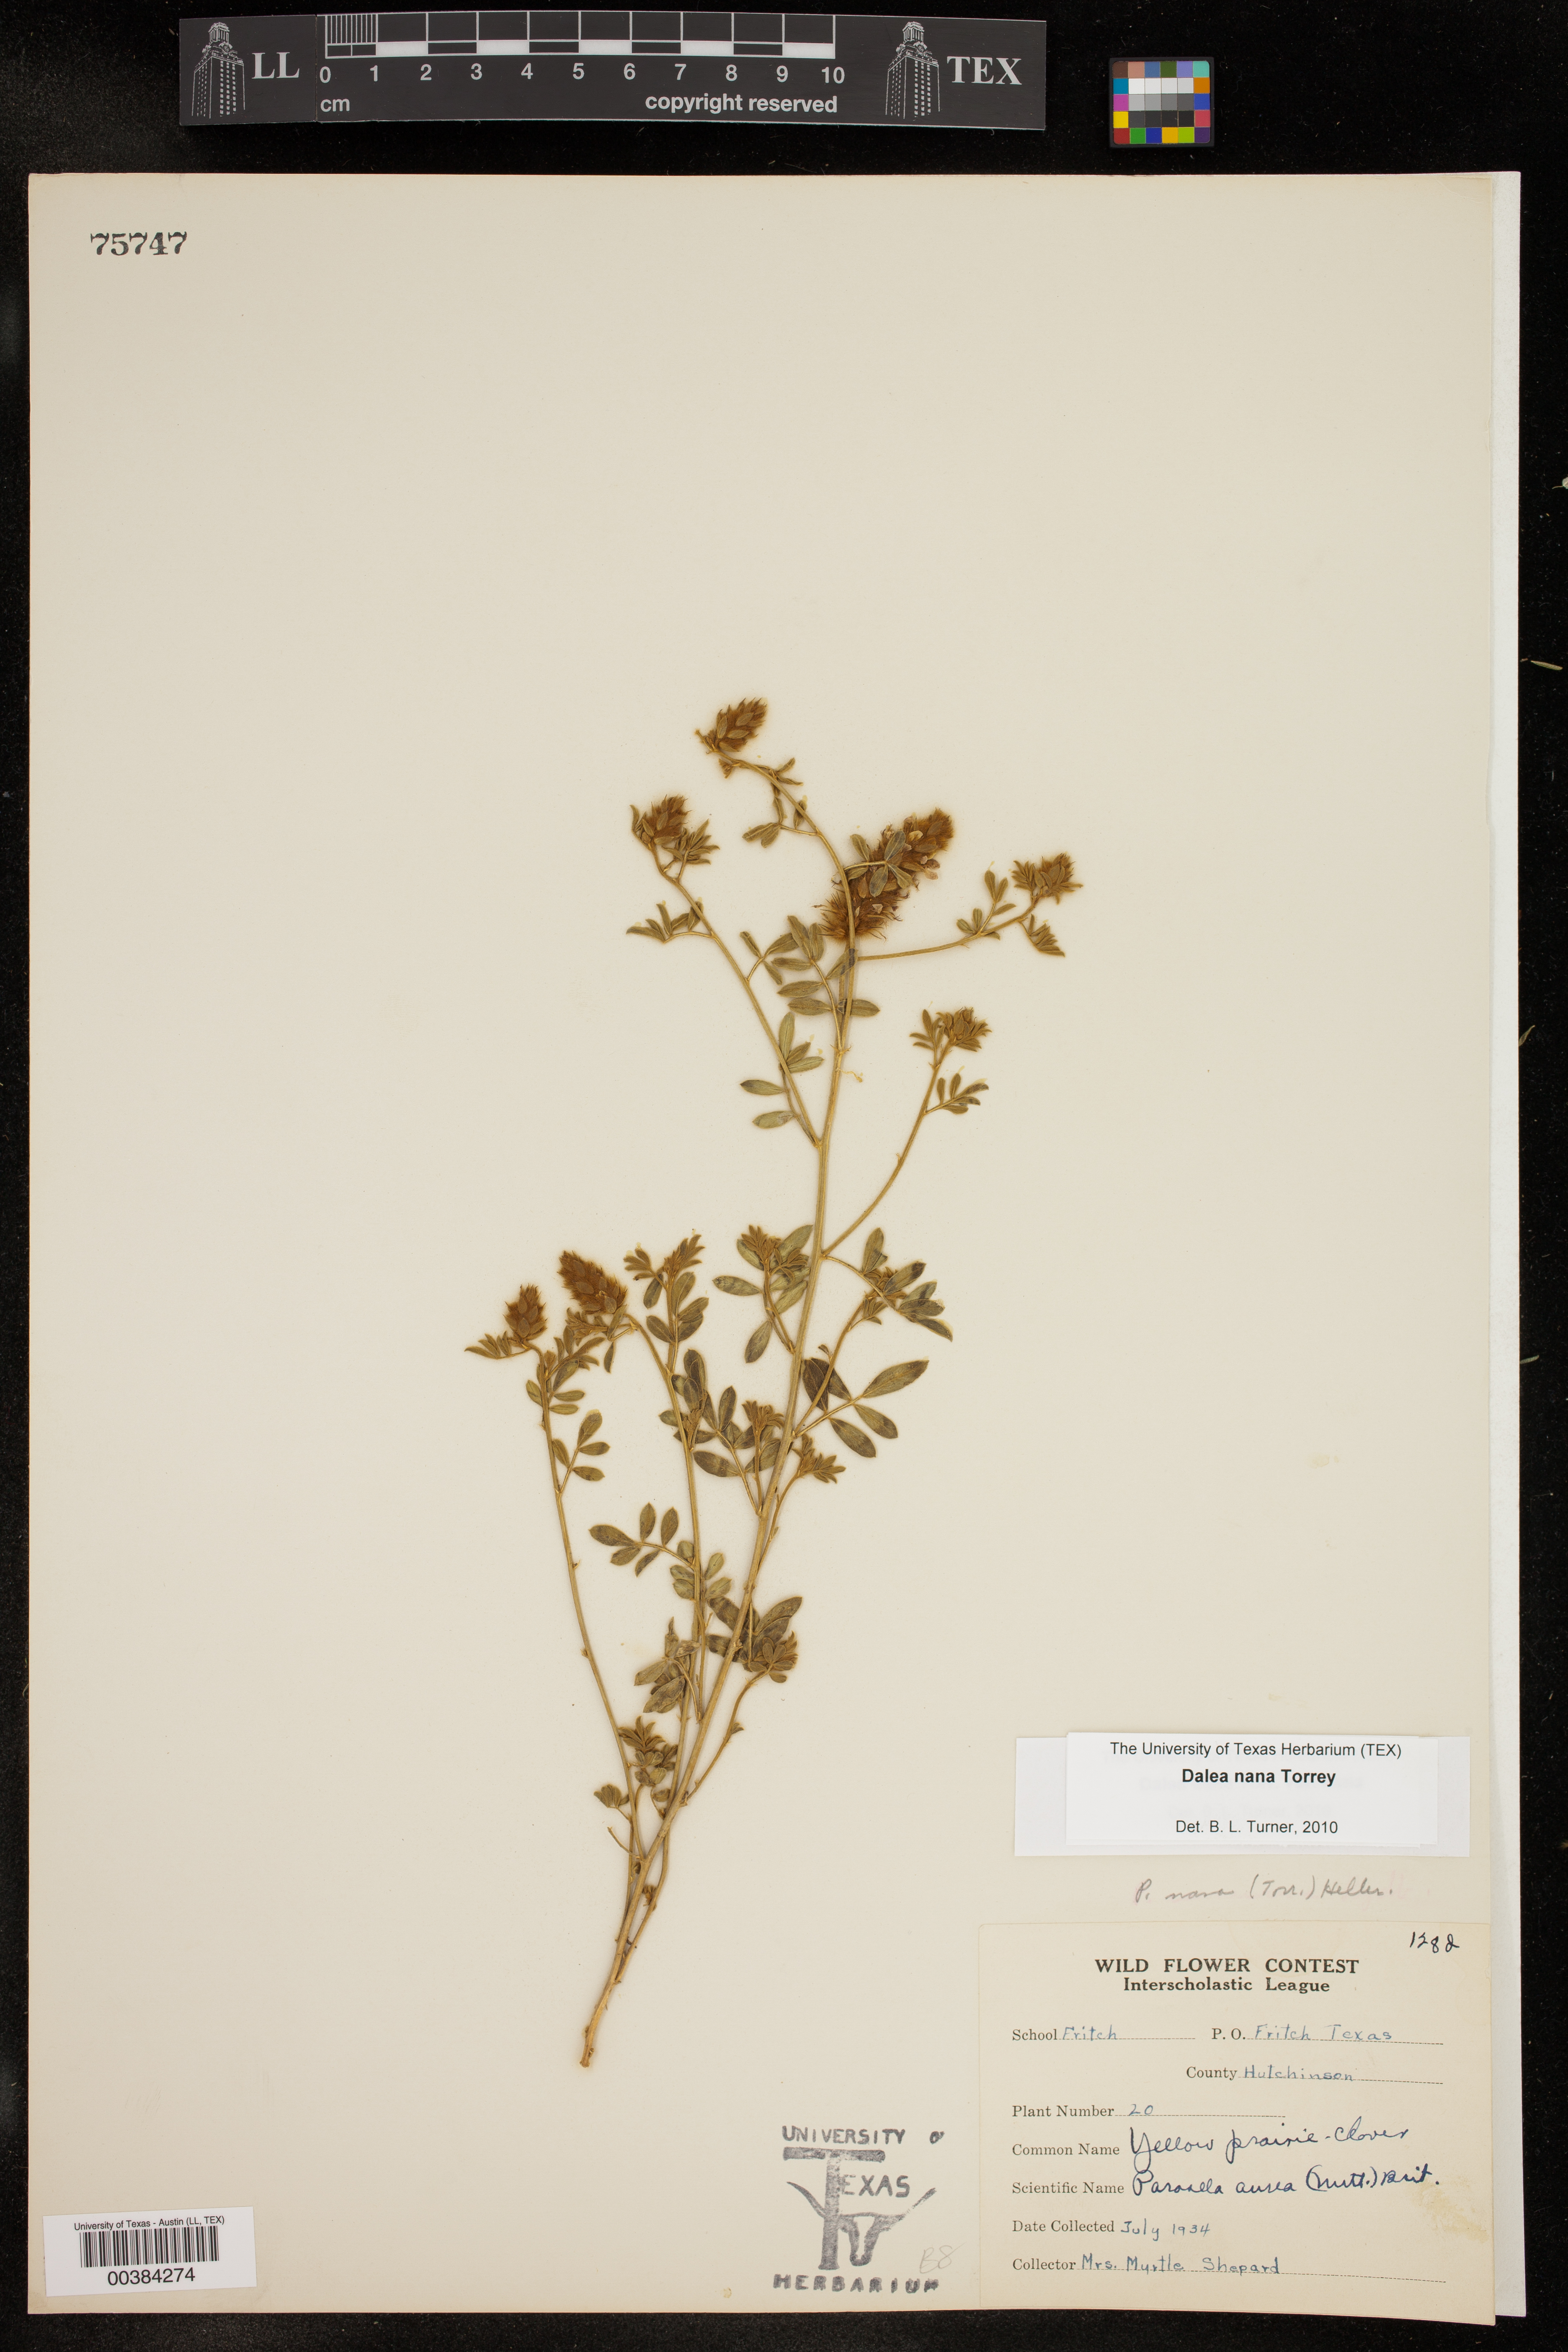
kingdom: Plantae
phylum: Tracheophyta
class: Magnoliopsida
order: Fabales
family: Fabaceae
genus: Dalea
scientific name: Dalea nana
